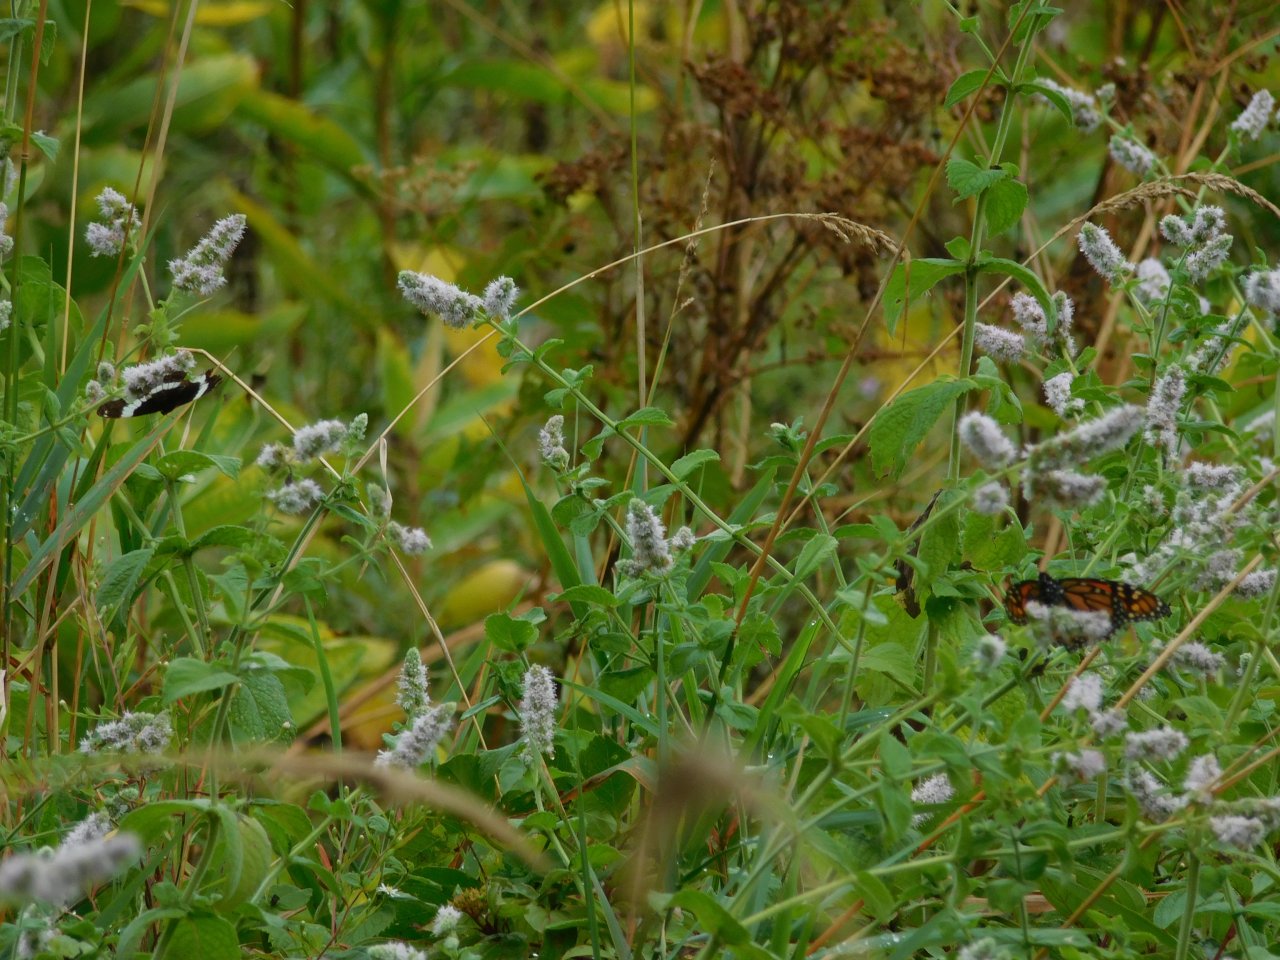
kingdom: Animalia
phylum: Arthropoda
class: Insecta
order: Lepidoptera
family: Nymphalidae
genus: Limenitis
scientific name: Limenitis arthemis
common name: Red-spotted Admiral
